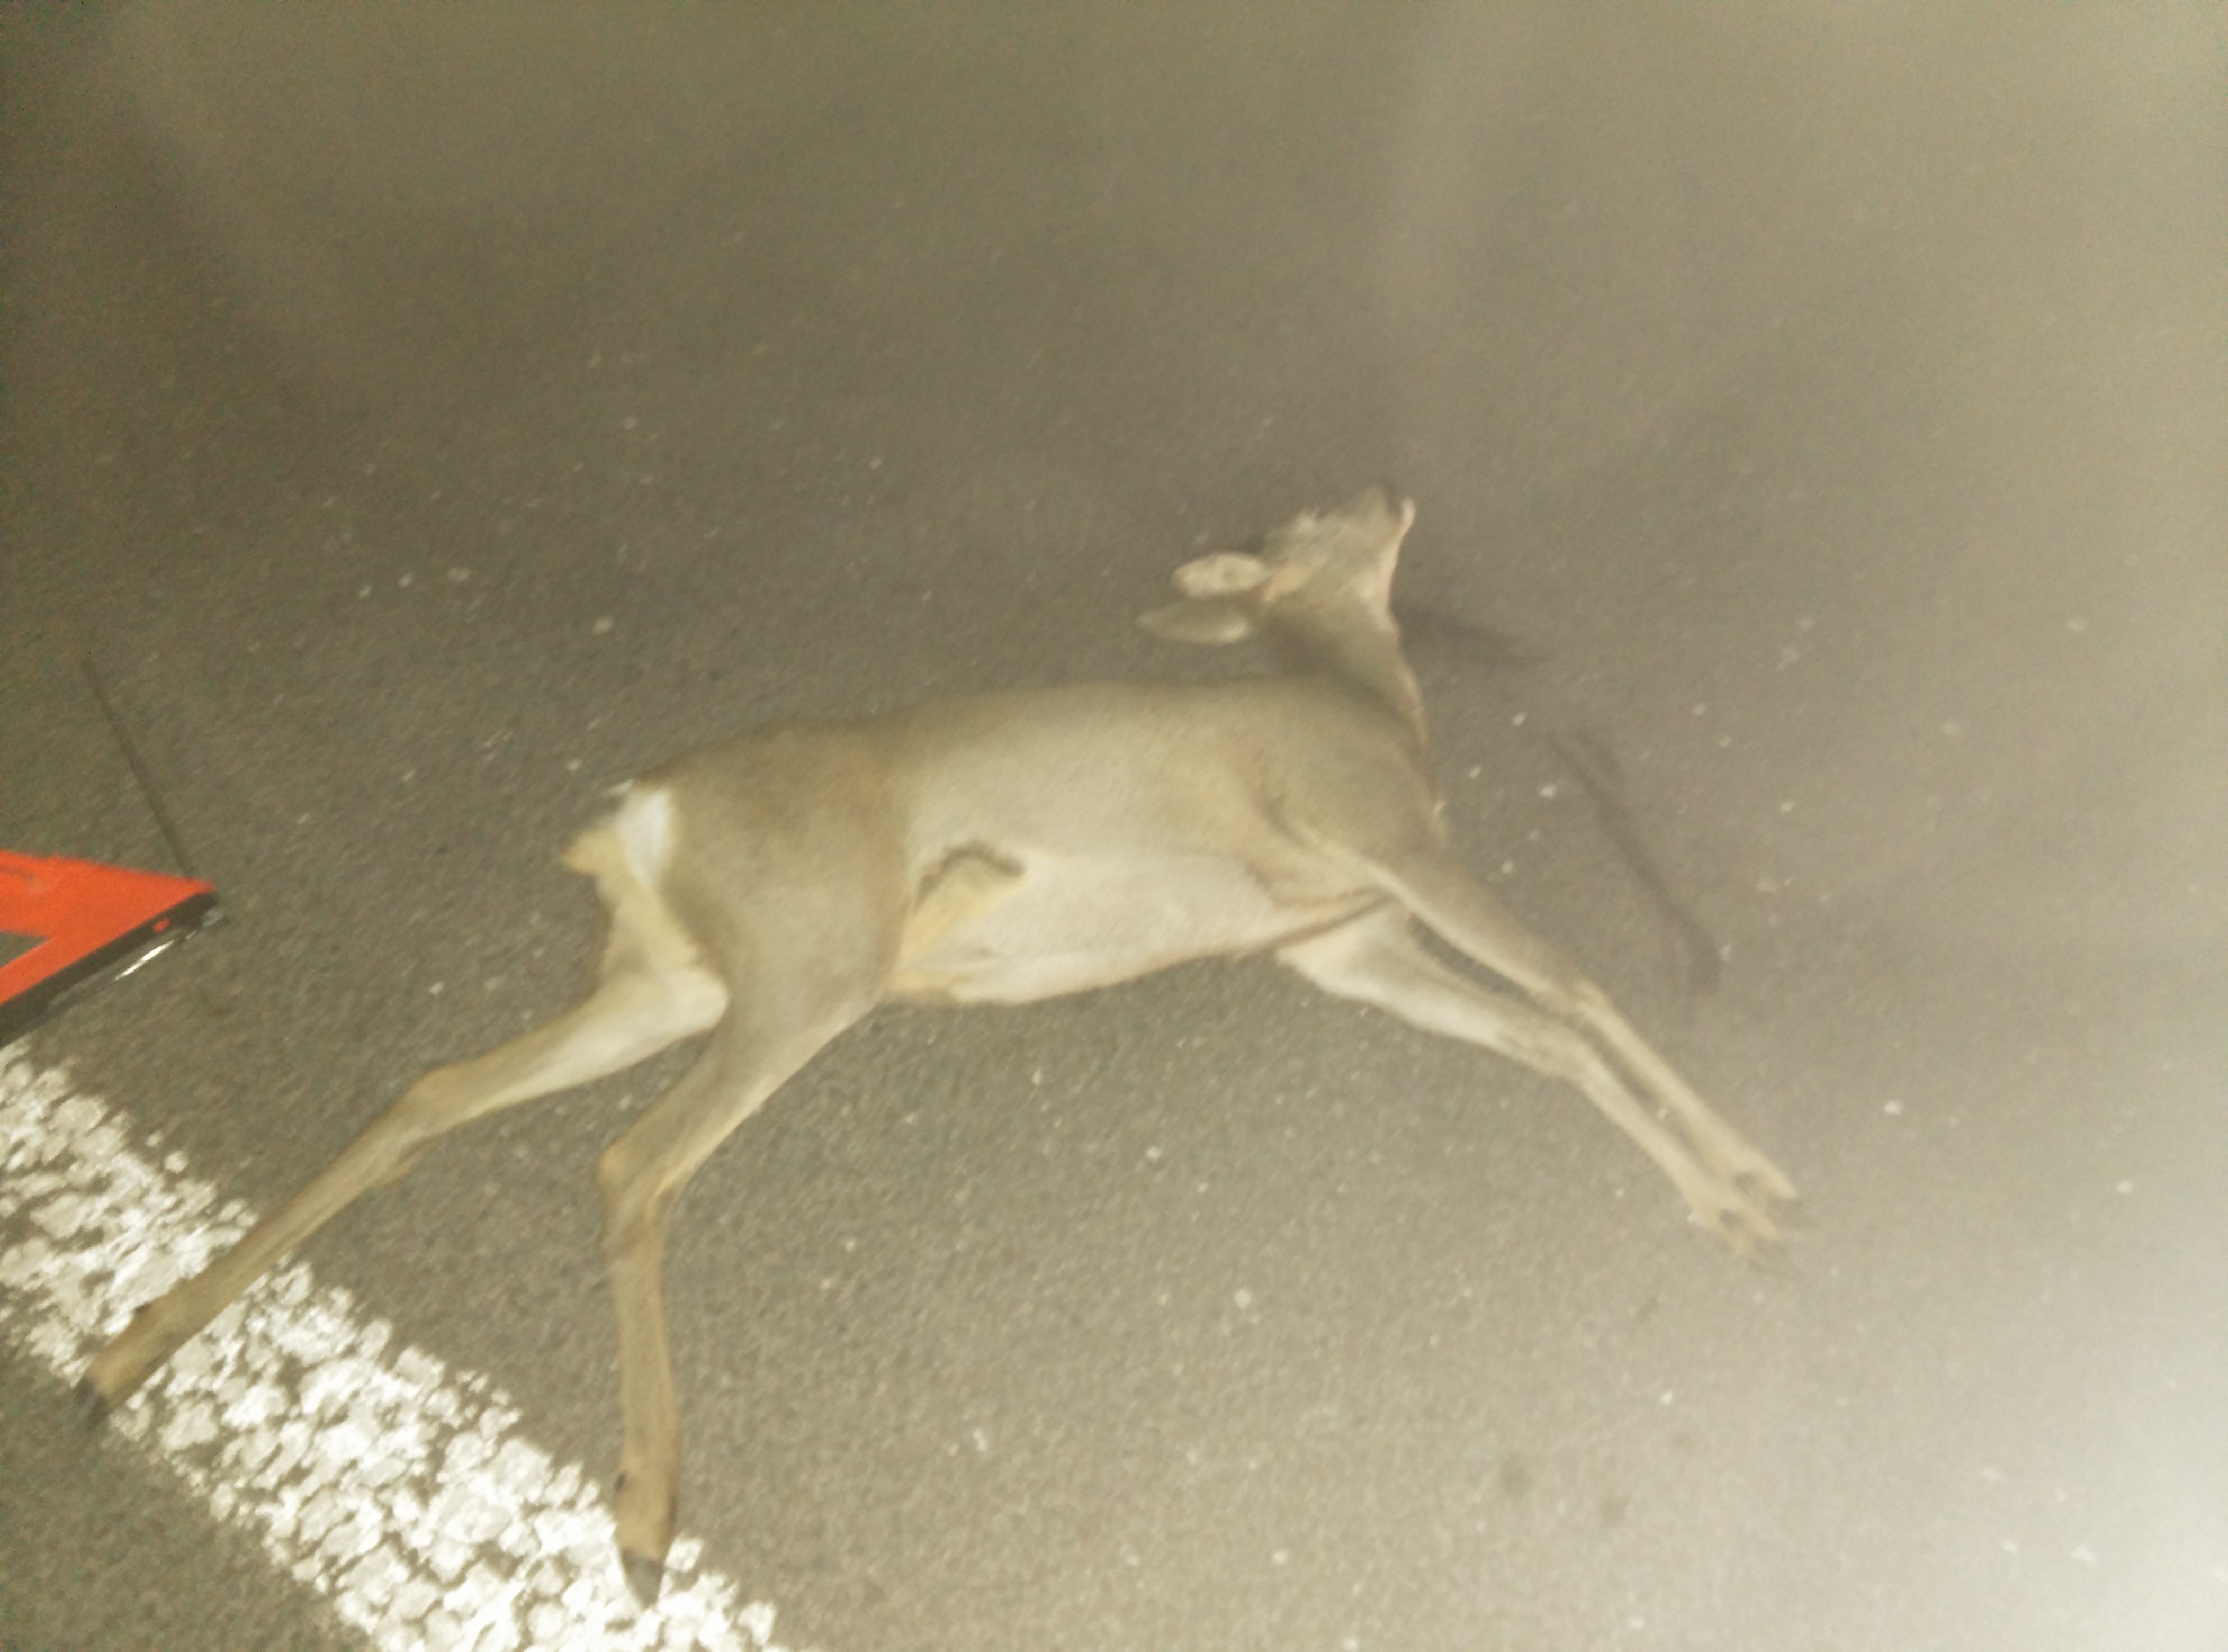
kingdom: Animalia
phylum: Chordata
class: Mammalia
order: Artiodactyla
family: Cervidae
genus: Capreolus
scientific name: Capreolus capreolus
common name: Western roe deer
